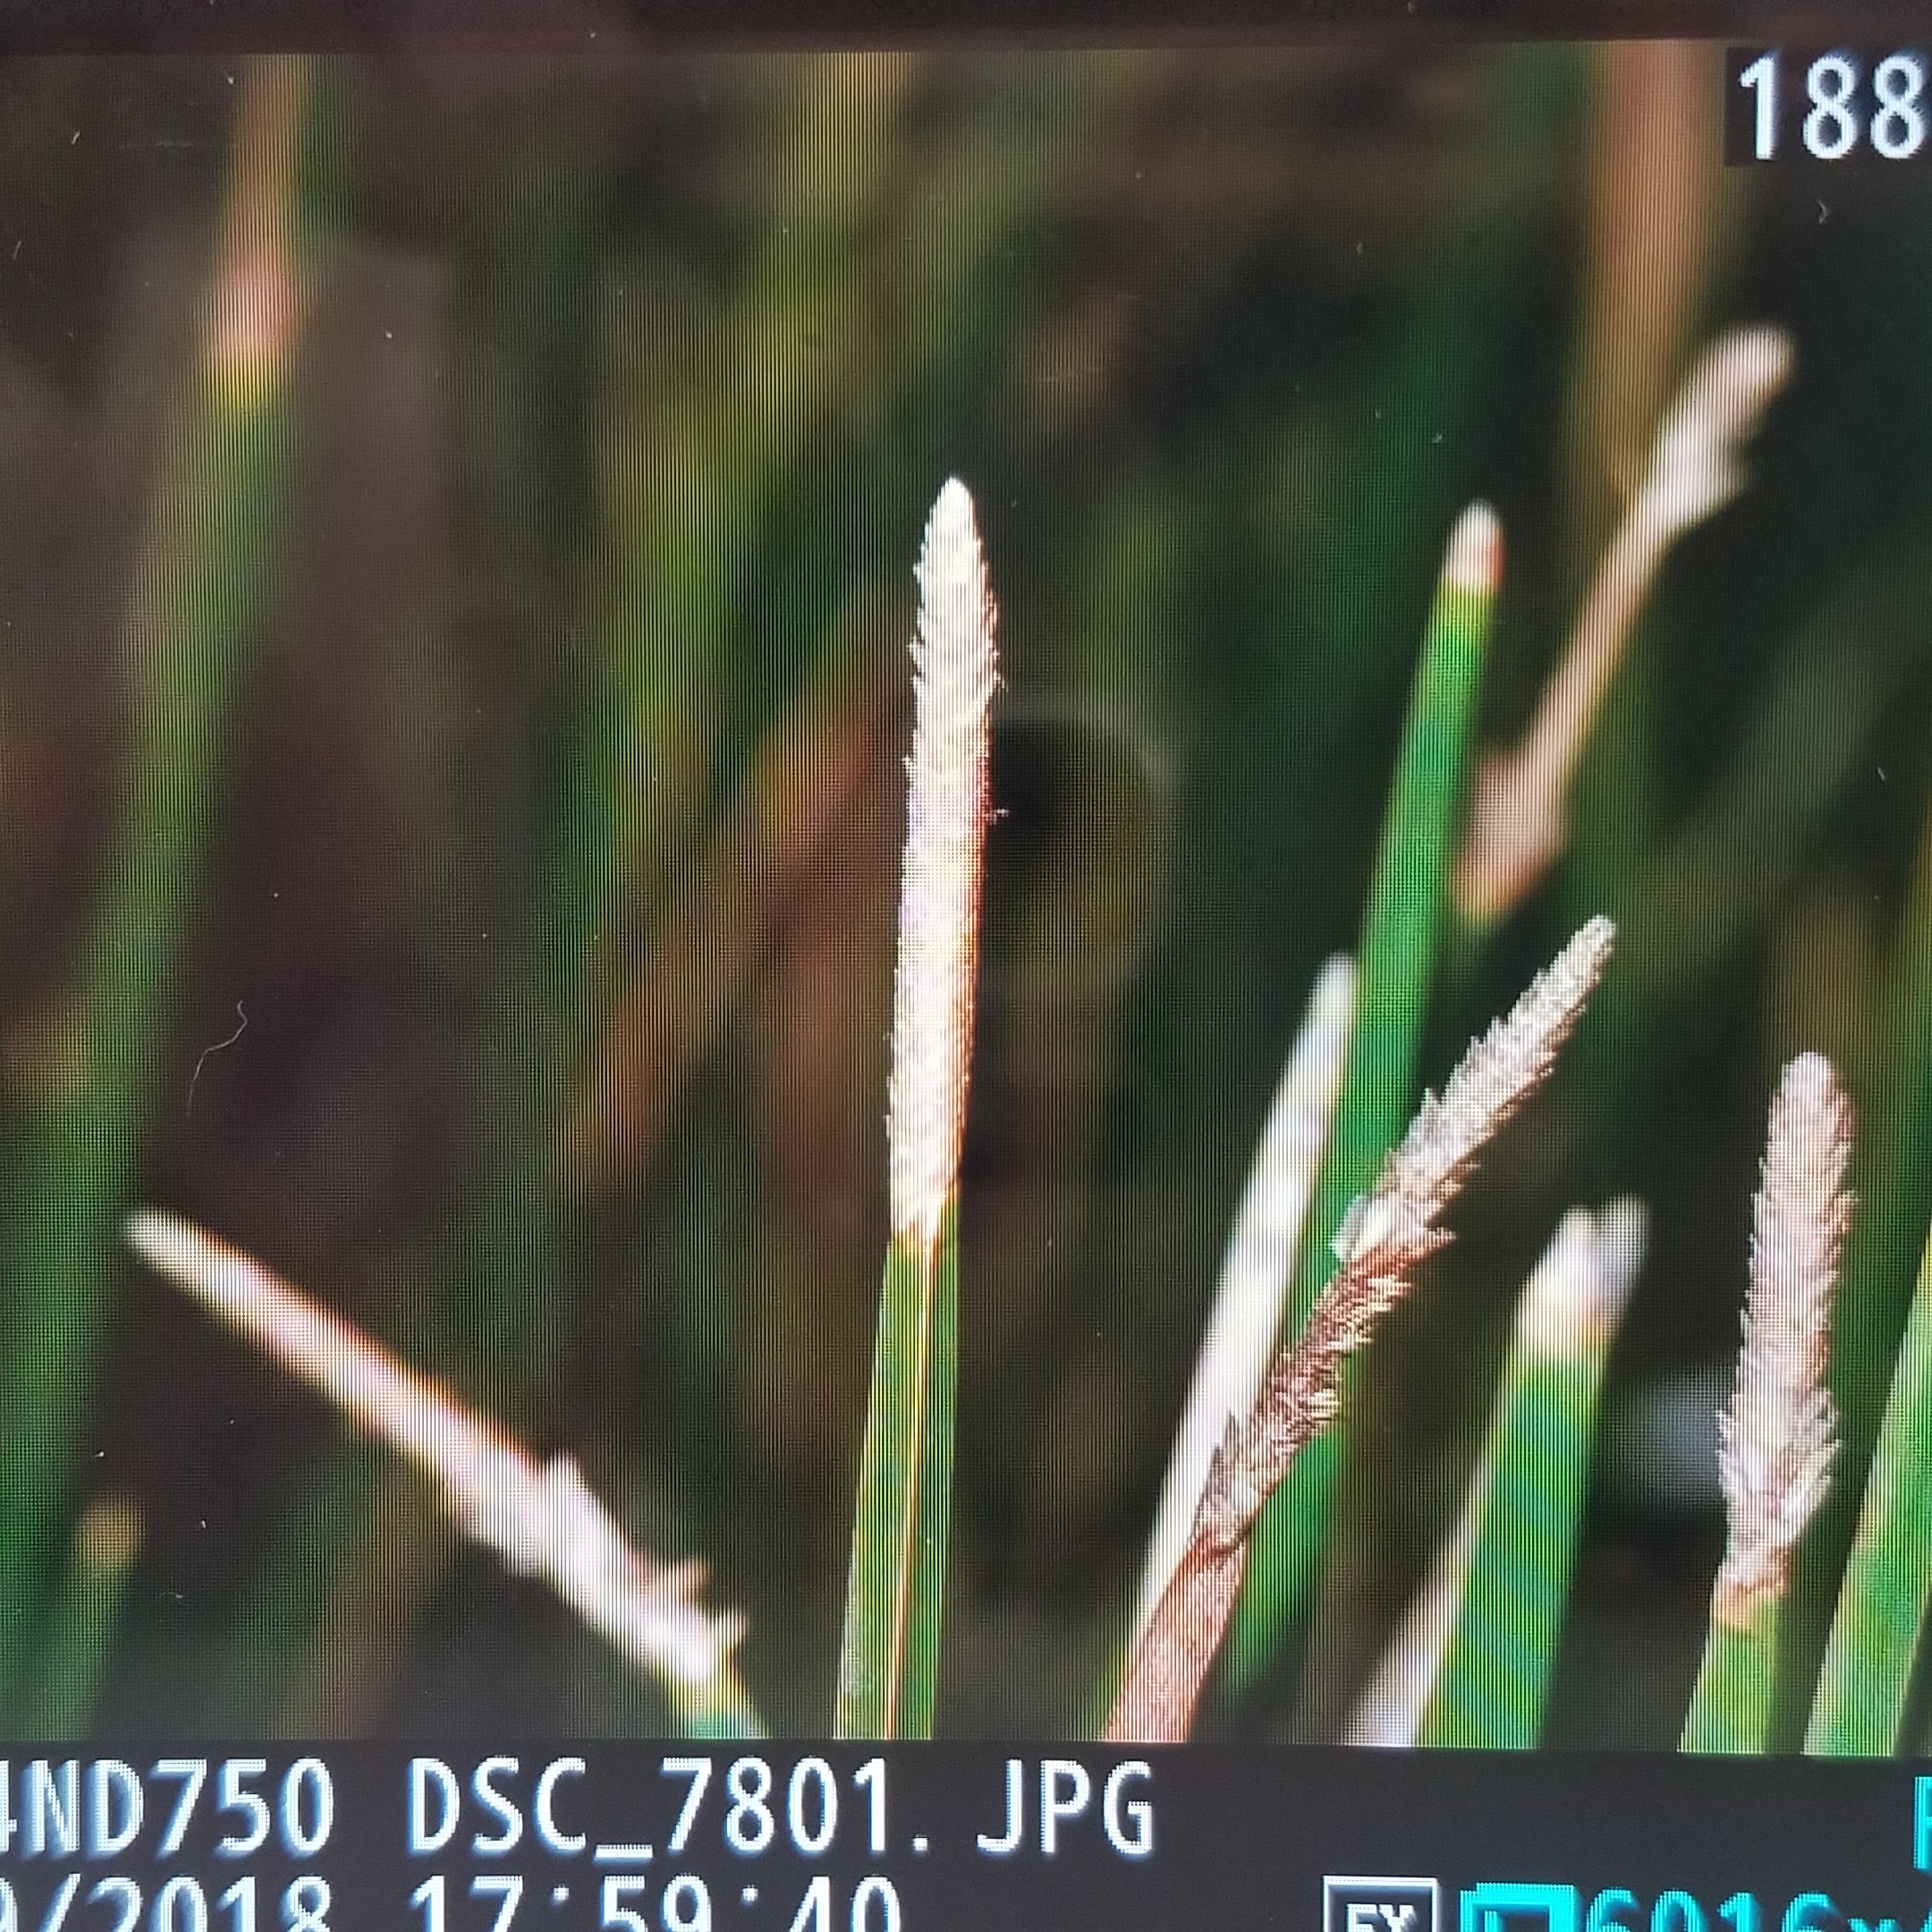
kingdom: Plantae
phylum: Tracheophyta
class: Liliopsida
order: Poales
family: Cyperaceae
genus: Eleocharis
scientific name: Eleocharis cellulosa
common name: twisted sedge
